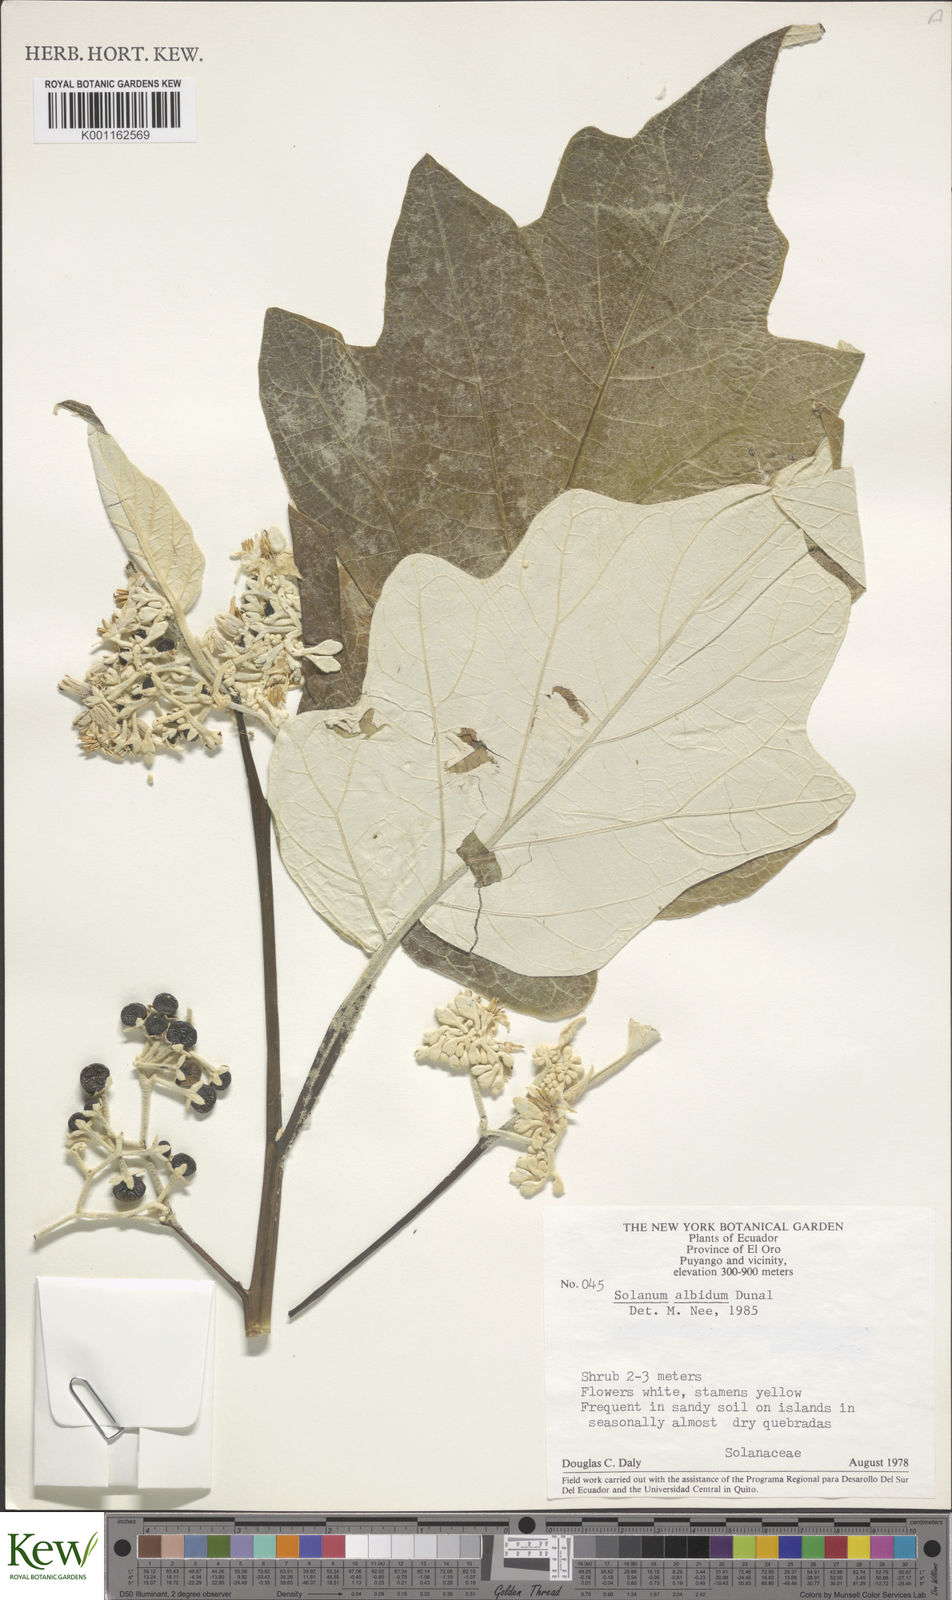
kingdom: Plantae
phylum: Tracheophyta
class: Magnoliopsida
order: Solanales
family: Solanaceae
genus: Solanum
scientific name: Solanum albidum
